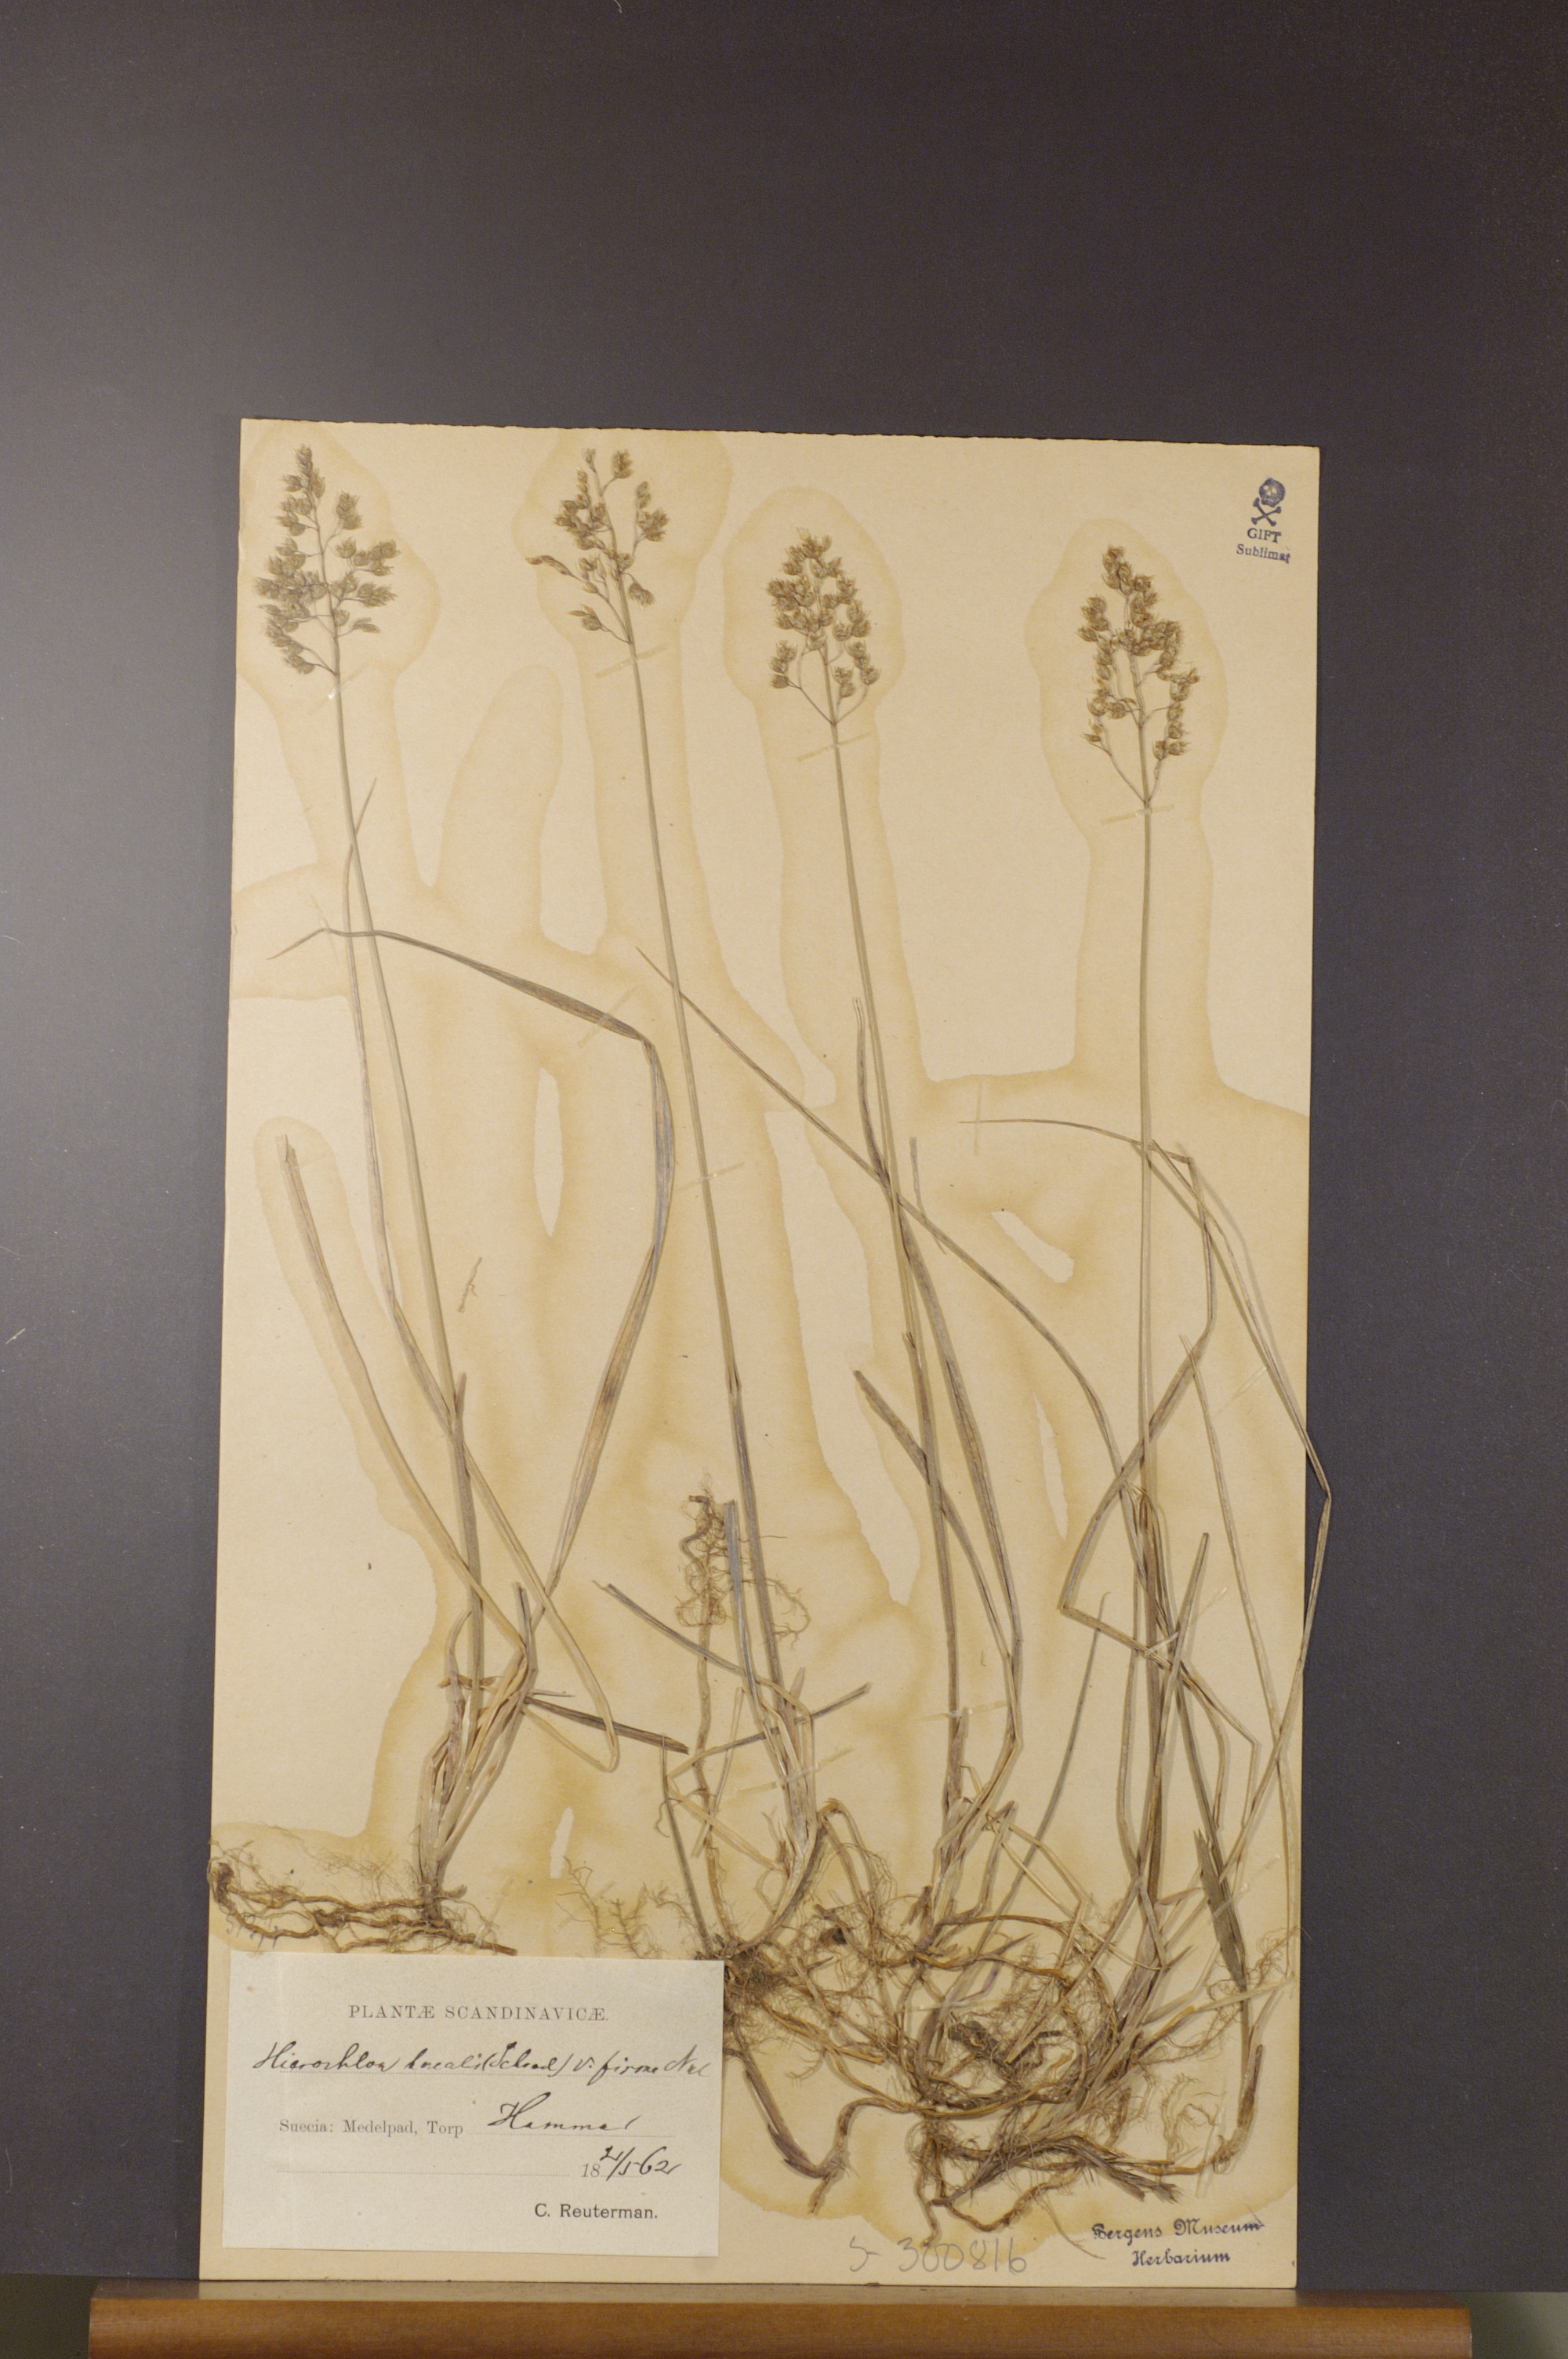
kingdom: Plantae
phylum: Tracheophyta
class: Liliopsida
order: Poales
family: Poaceae
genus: Anthoxanthum
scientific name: Anthoxanthum nitens
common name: Holy grass
